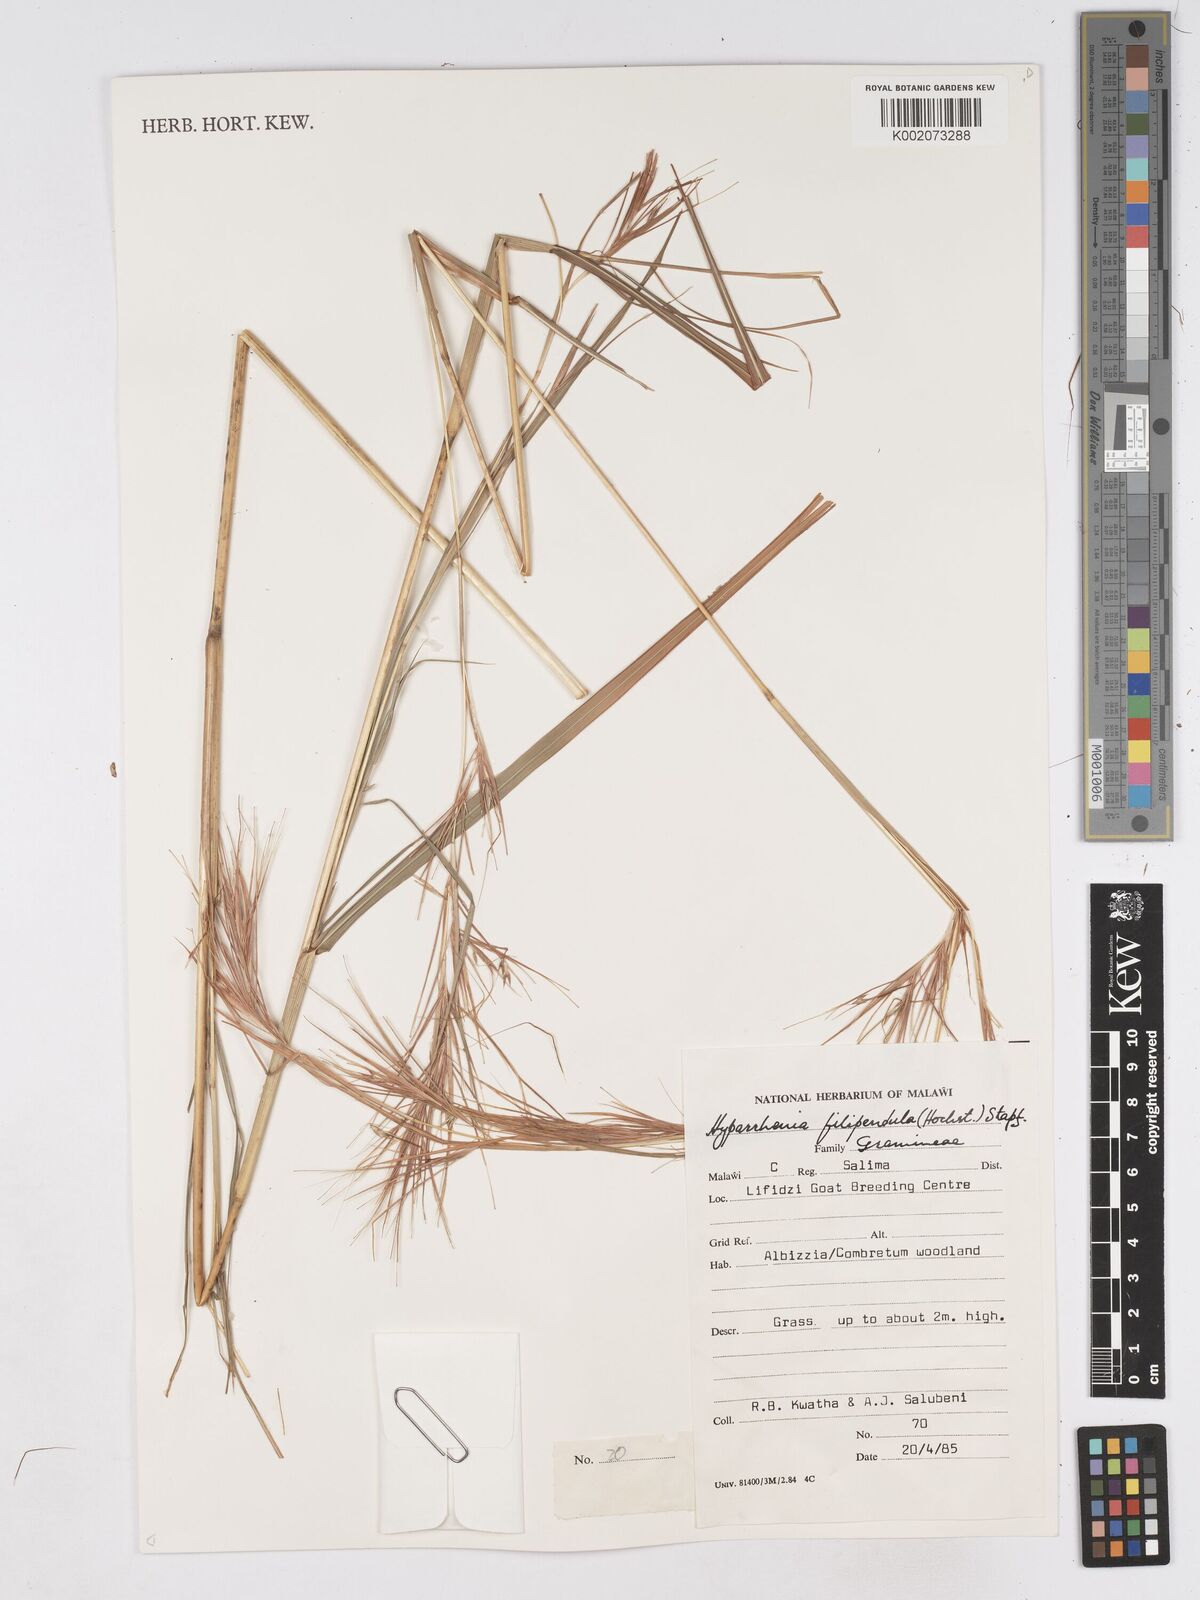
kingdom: Plantae
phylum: Tracheophyta
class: Liliopsida
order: Poales
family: Poaceae
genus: Hyparrhenia
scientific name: Hyparrhenia filipendula
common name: Tambookie grass
